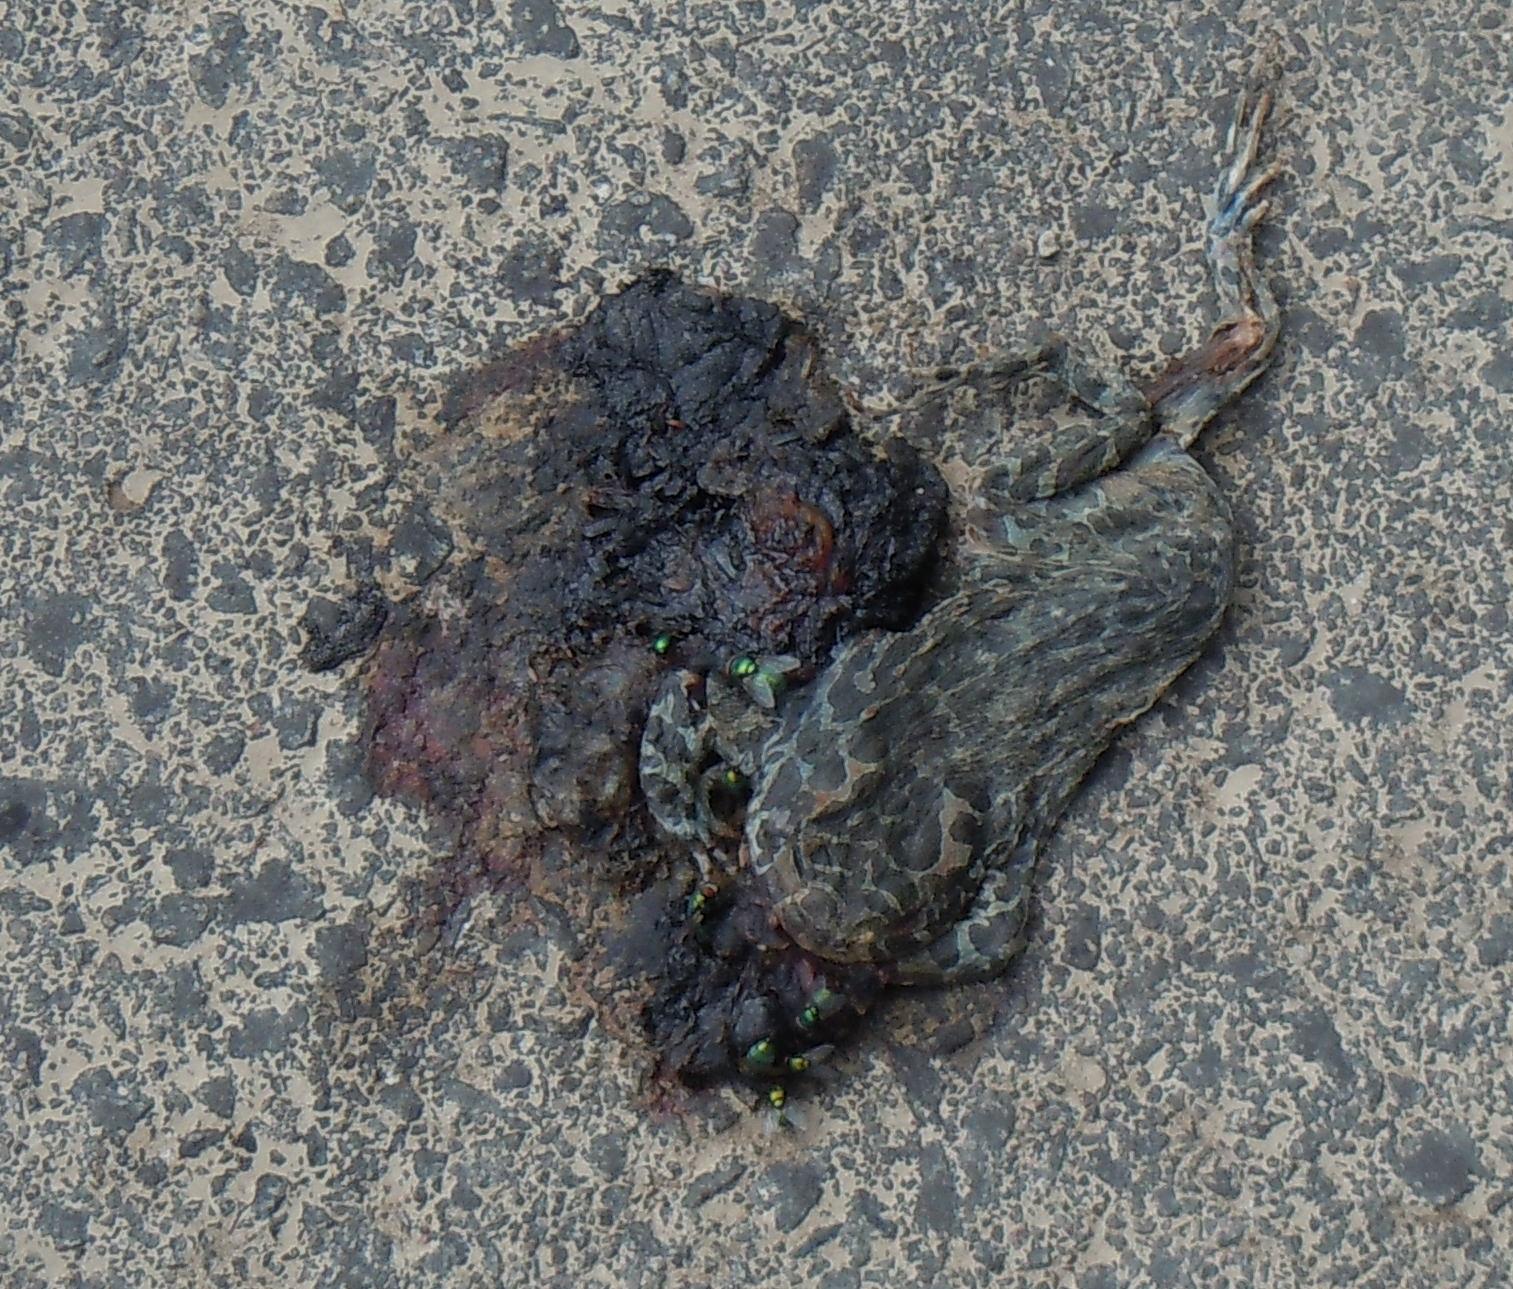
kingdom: Animalia
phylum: Chordata
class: Amphibia
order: Anura
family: Bufonidae
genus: Bufotes
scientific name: Bufotes viridis
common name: European green toad
